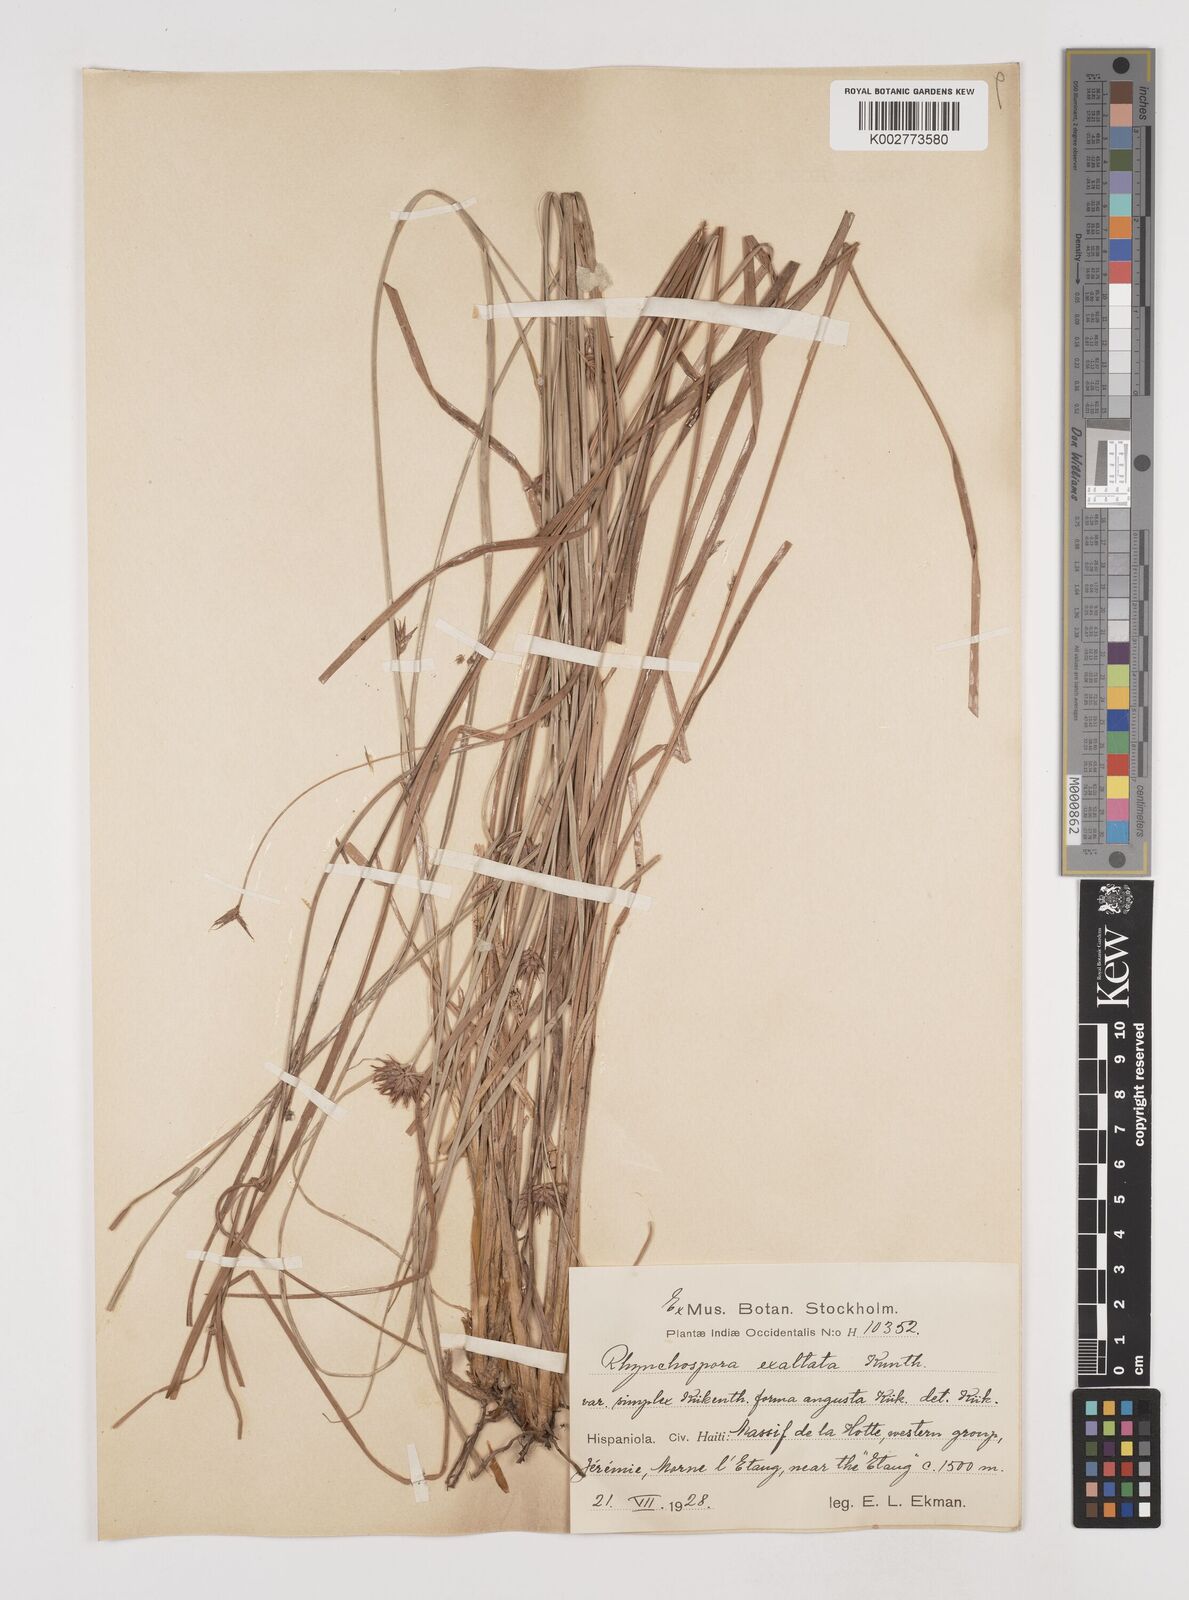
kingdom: Plantae
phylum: Tracheophyta
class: Liliopsida
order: Poales
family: Cyperaceae
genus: Rhynchospora
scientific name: Rhynchospora exaltata
